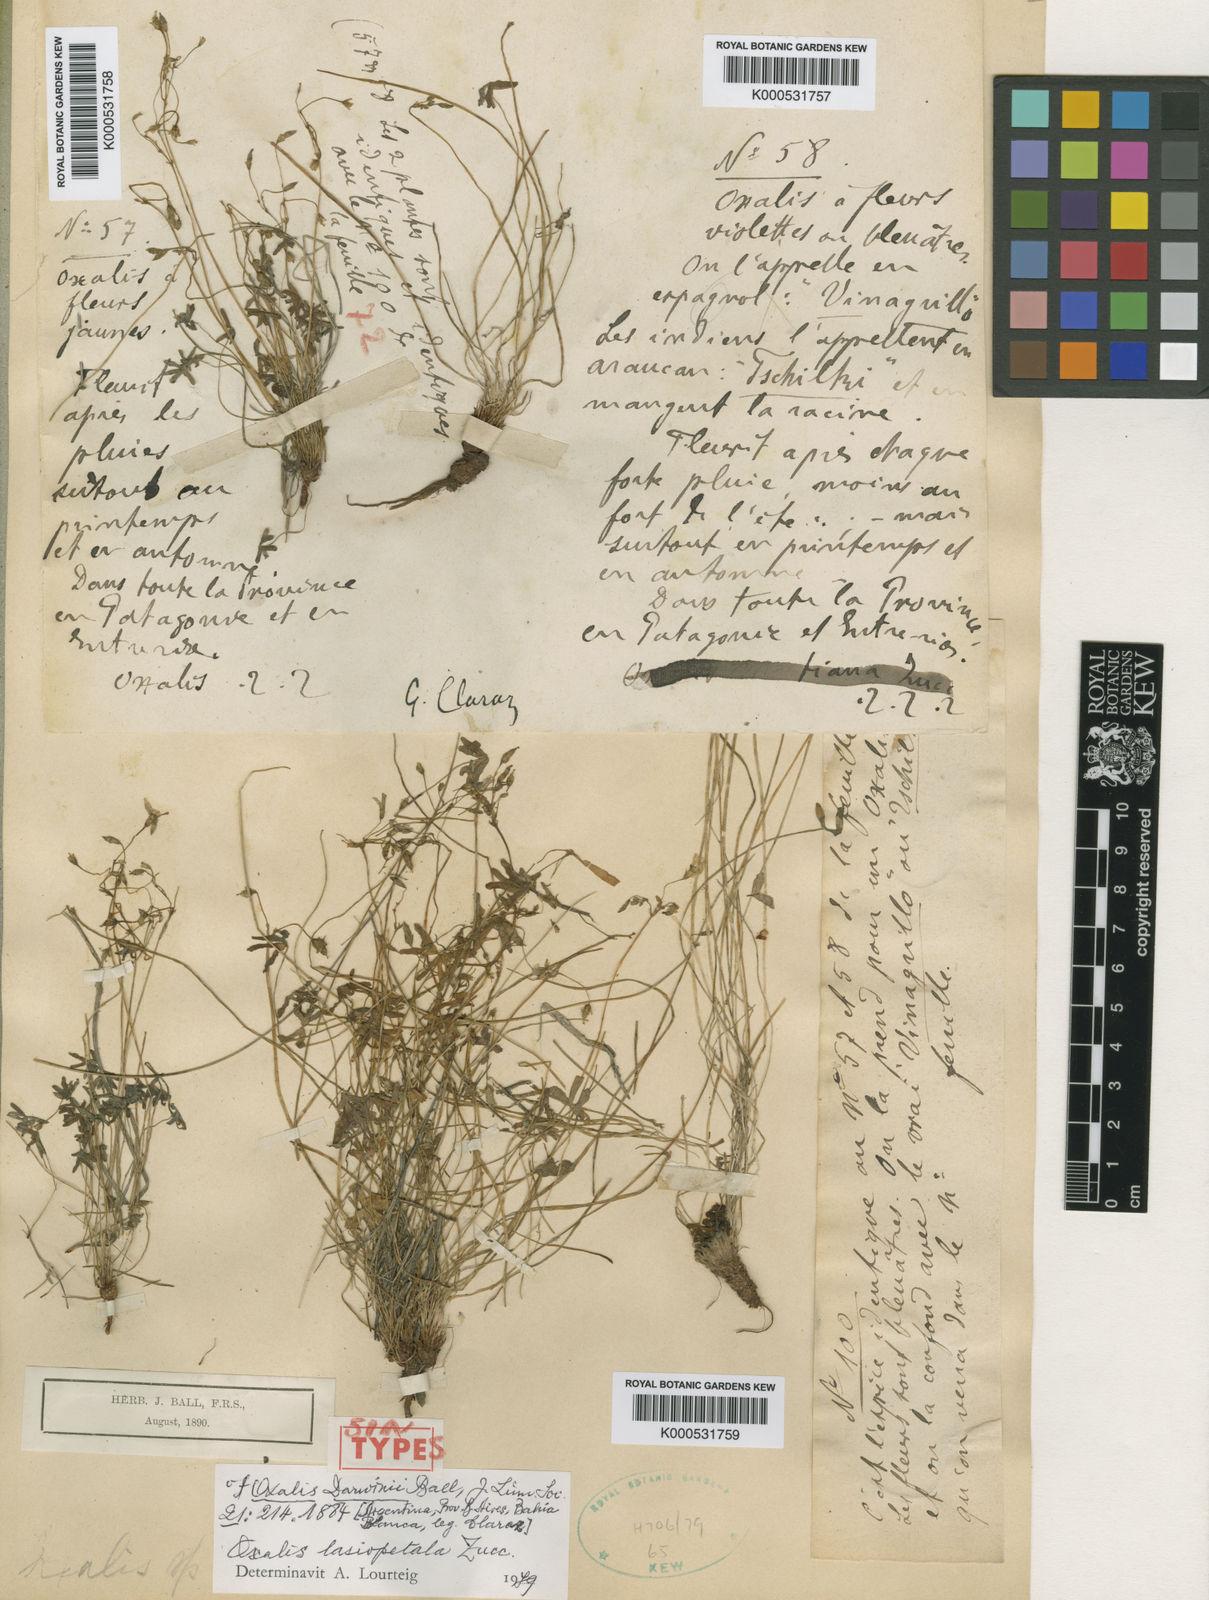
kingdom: Plantae
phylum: Tracheophyta
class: Magnoliopsida
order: Oxalidales
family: Oxalidaceae
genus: Oxalis
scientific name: Oxalis lasiopetala
